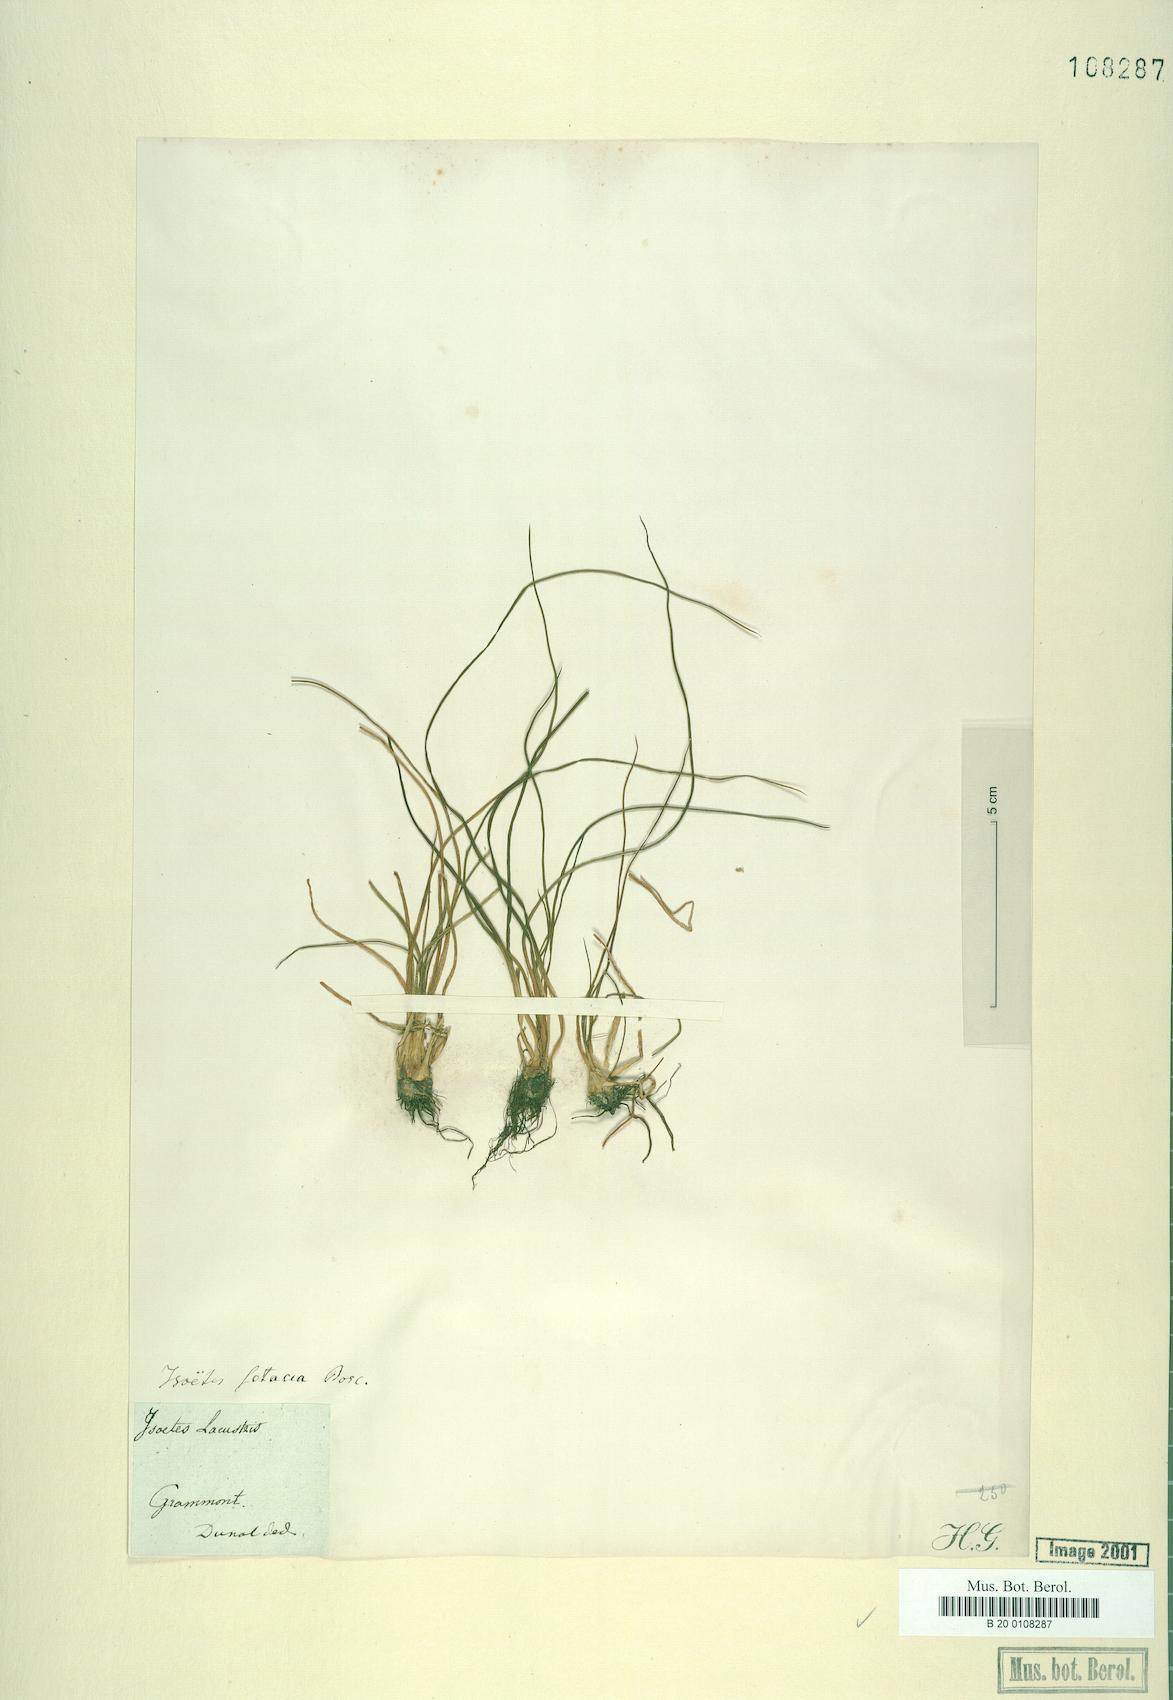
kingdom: Plantae
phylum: Tracheophyta
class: Lycopodiopsida
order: Isoetales
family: Isoetaceae
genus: Isoetes
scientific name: Isoetes lacustris
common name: Common quillwort
